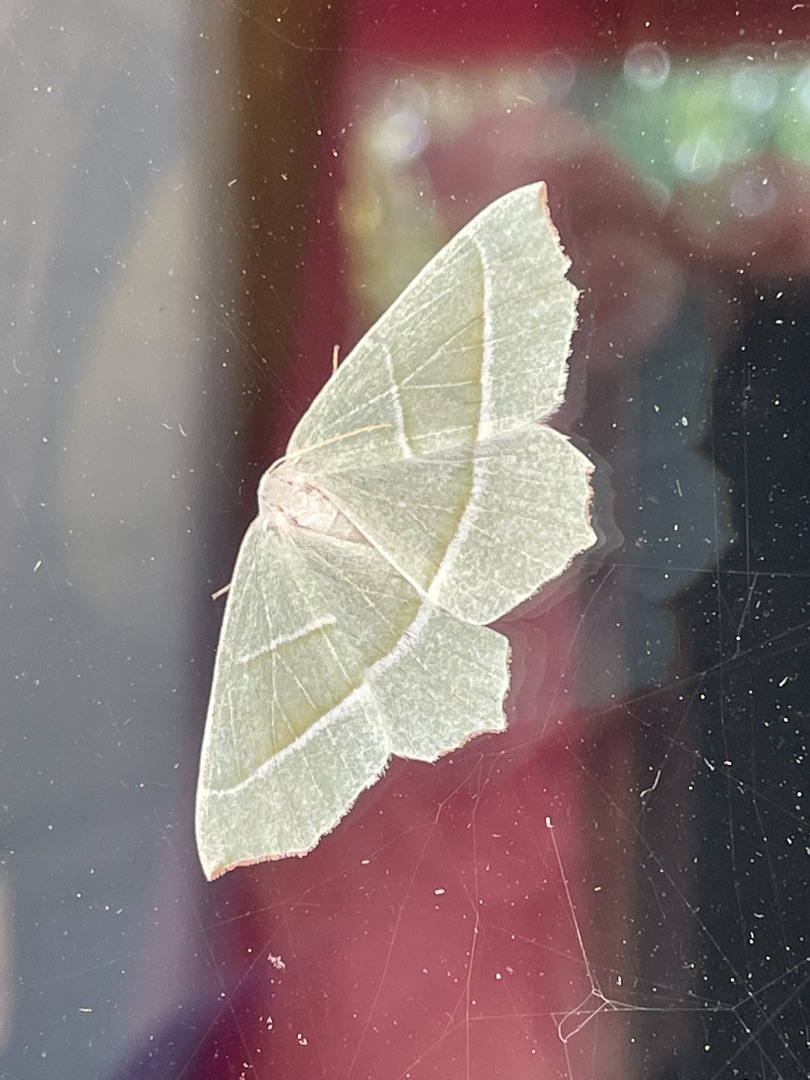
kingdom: Animalia
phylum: Arthropoda
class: Insecta
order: Lepidoptera
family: Geometridae
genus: Campaea
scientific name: Campaea margaritaria
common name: Perlemåler
